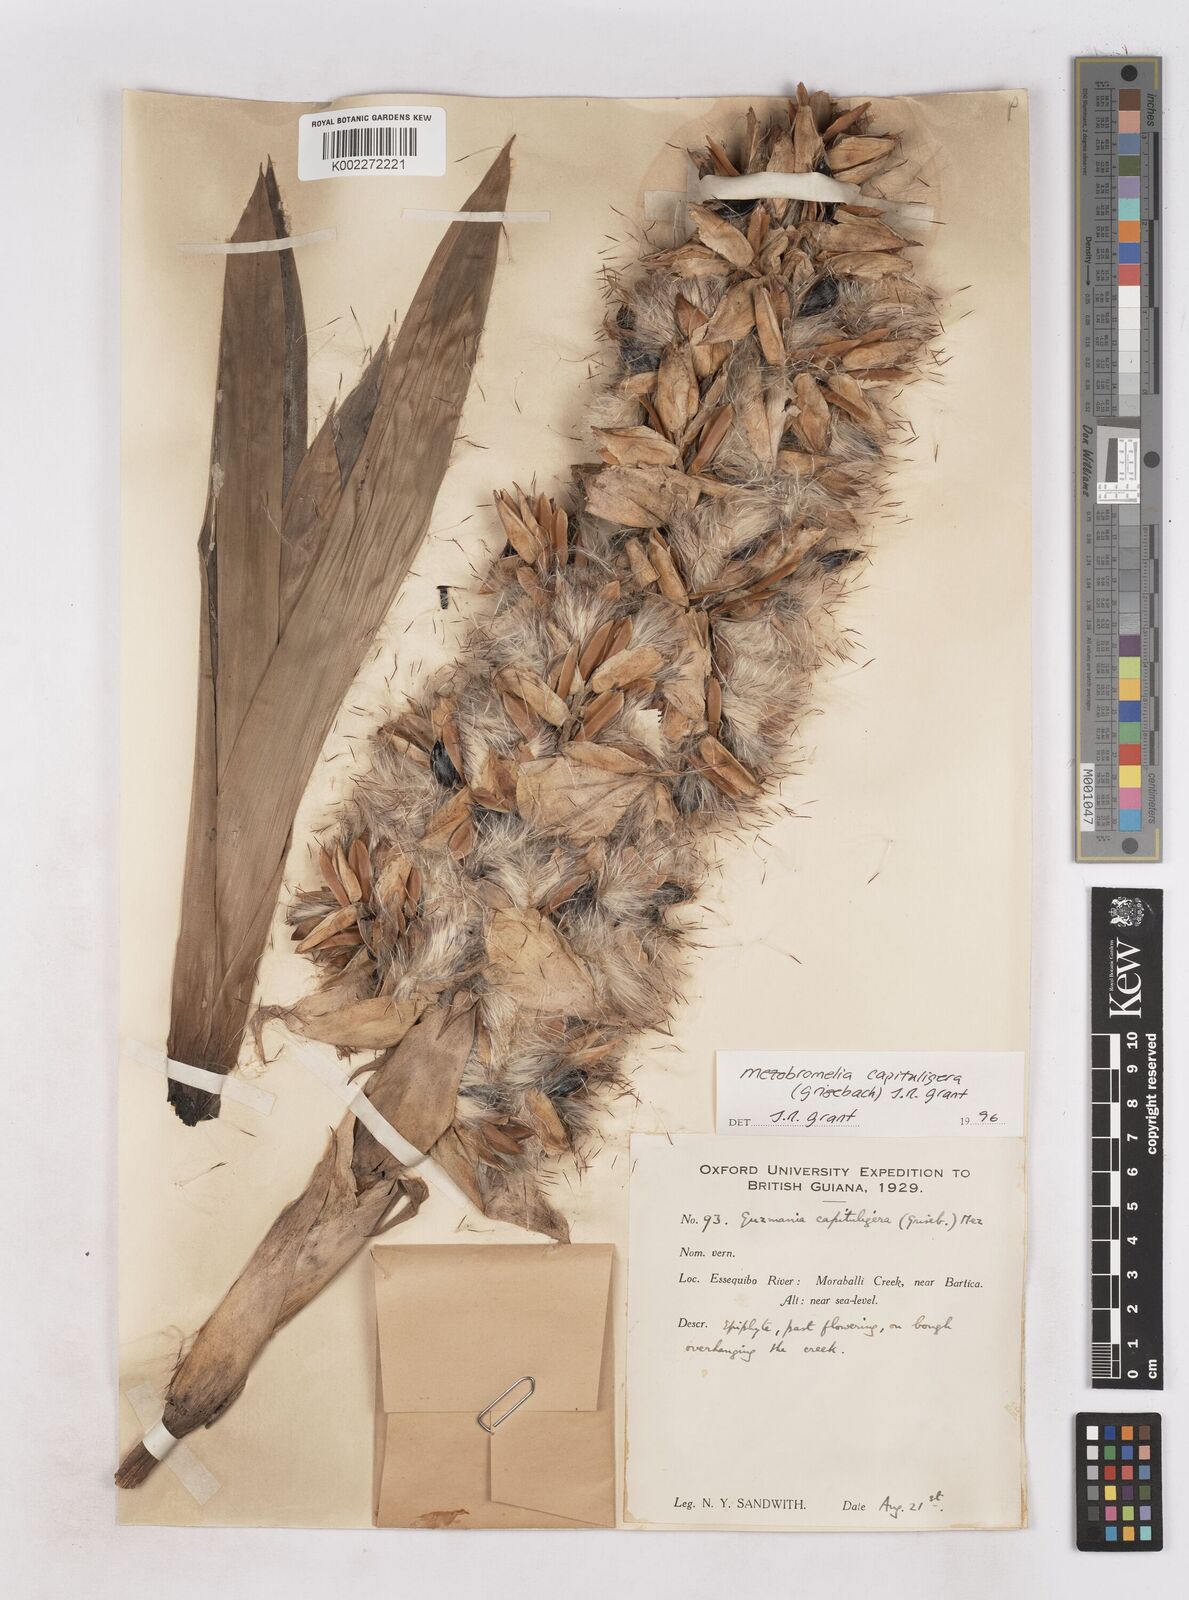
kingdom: Plantae
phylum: Tracheophyta
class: Liliopsida
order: Poales
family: Bromeliaceae
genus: Cipuropsis
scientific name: Cipuropsis capituligera
